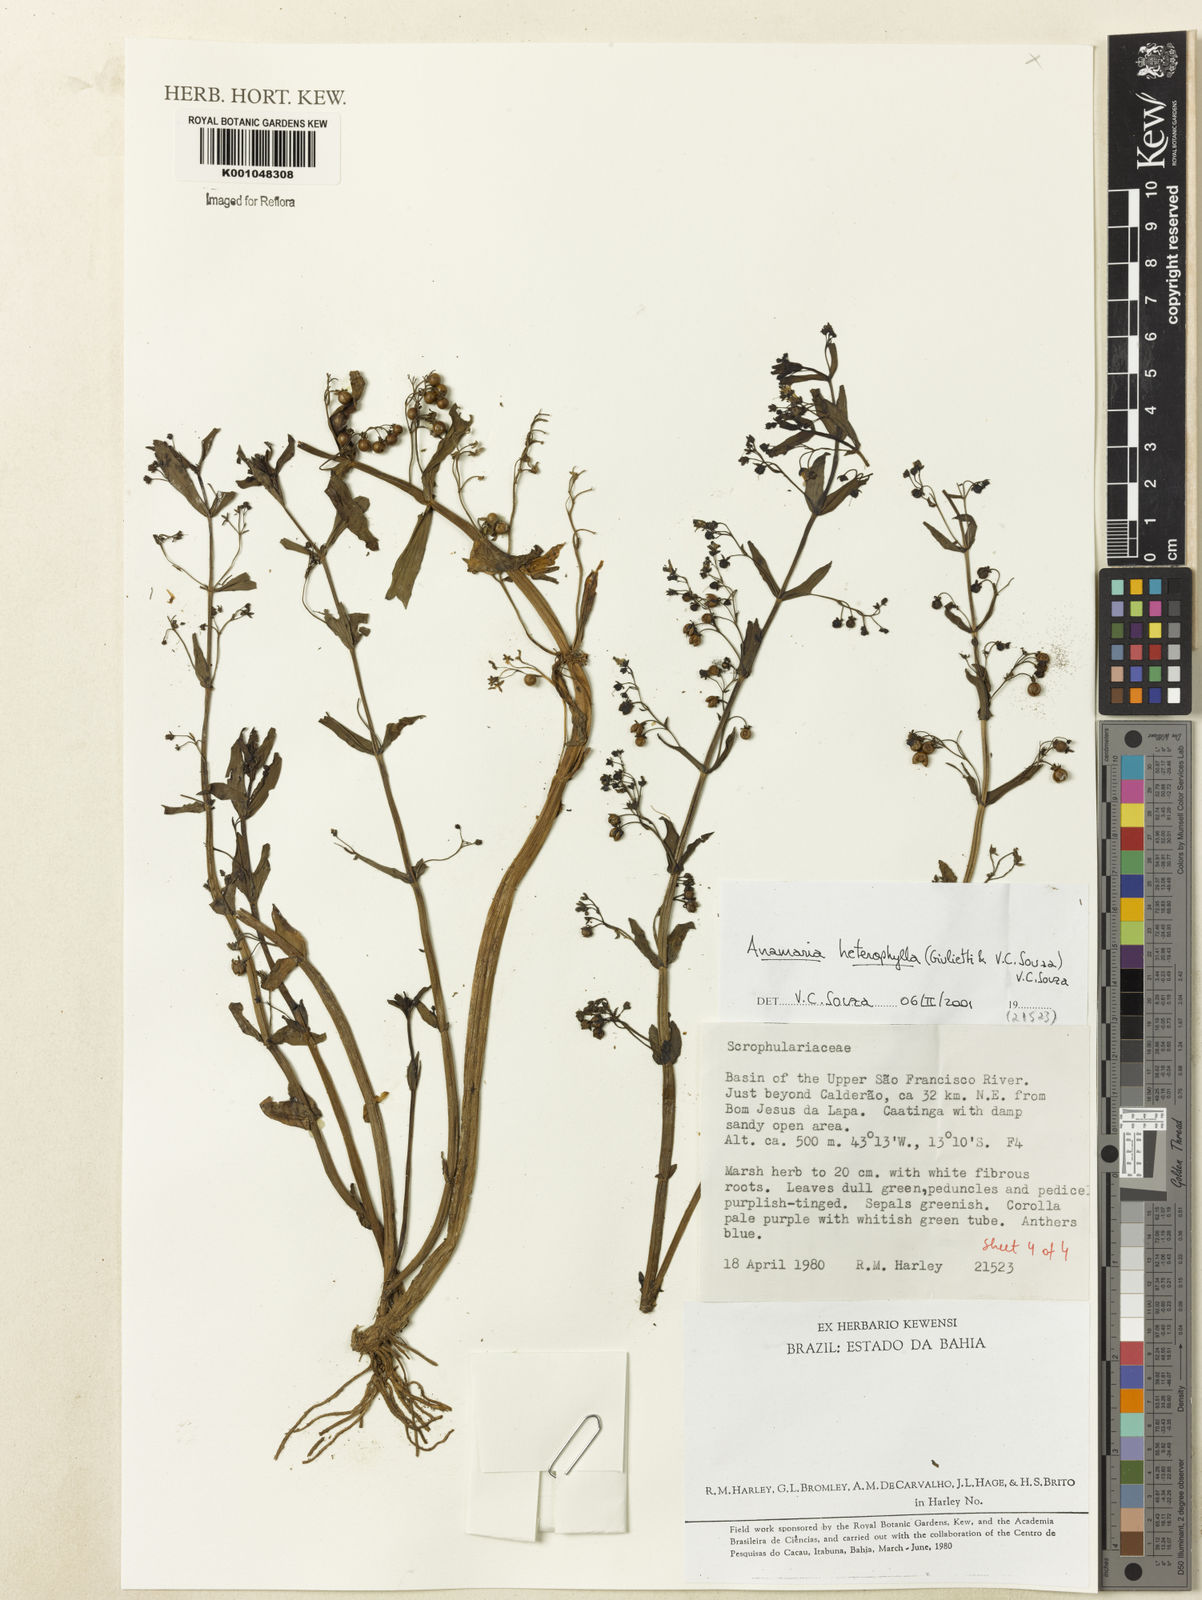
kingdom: Plantae
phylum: Tracheophyta
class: Magnoliopsida
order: Lamiales
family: Plantaginaceae
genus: Anamaria
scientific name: Anamaria heterophylla
